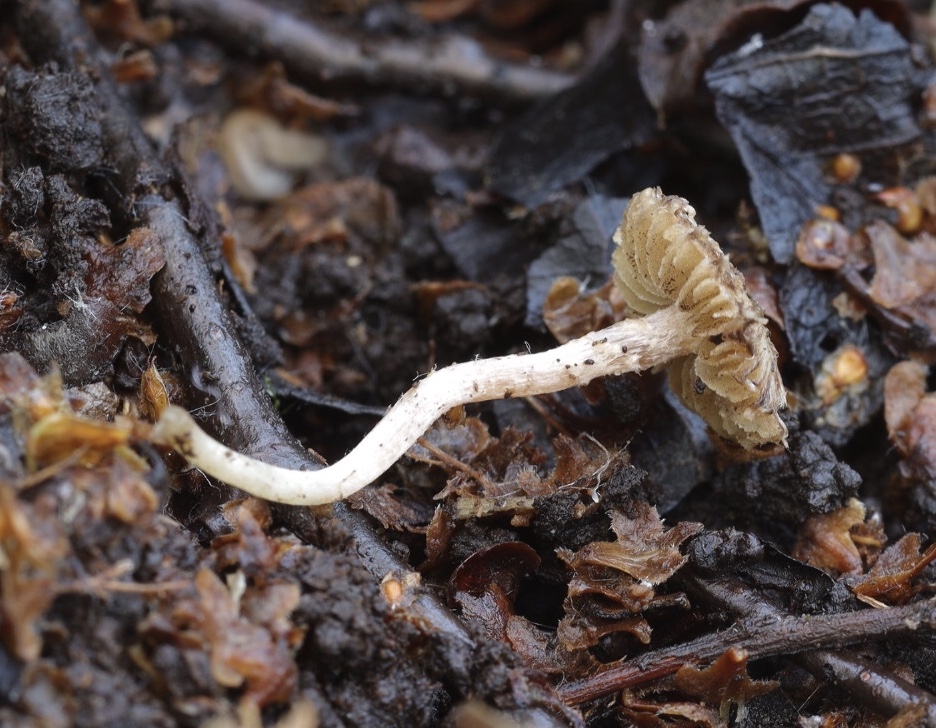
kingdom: Fungi
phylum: Basidiomycota
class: Agaricomycetes
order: Agaricales
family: Inocybaceae
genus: Inocybe
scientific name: Inocybe
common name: trævlhat
